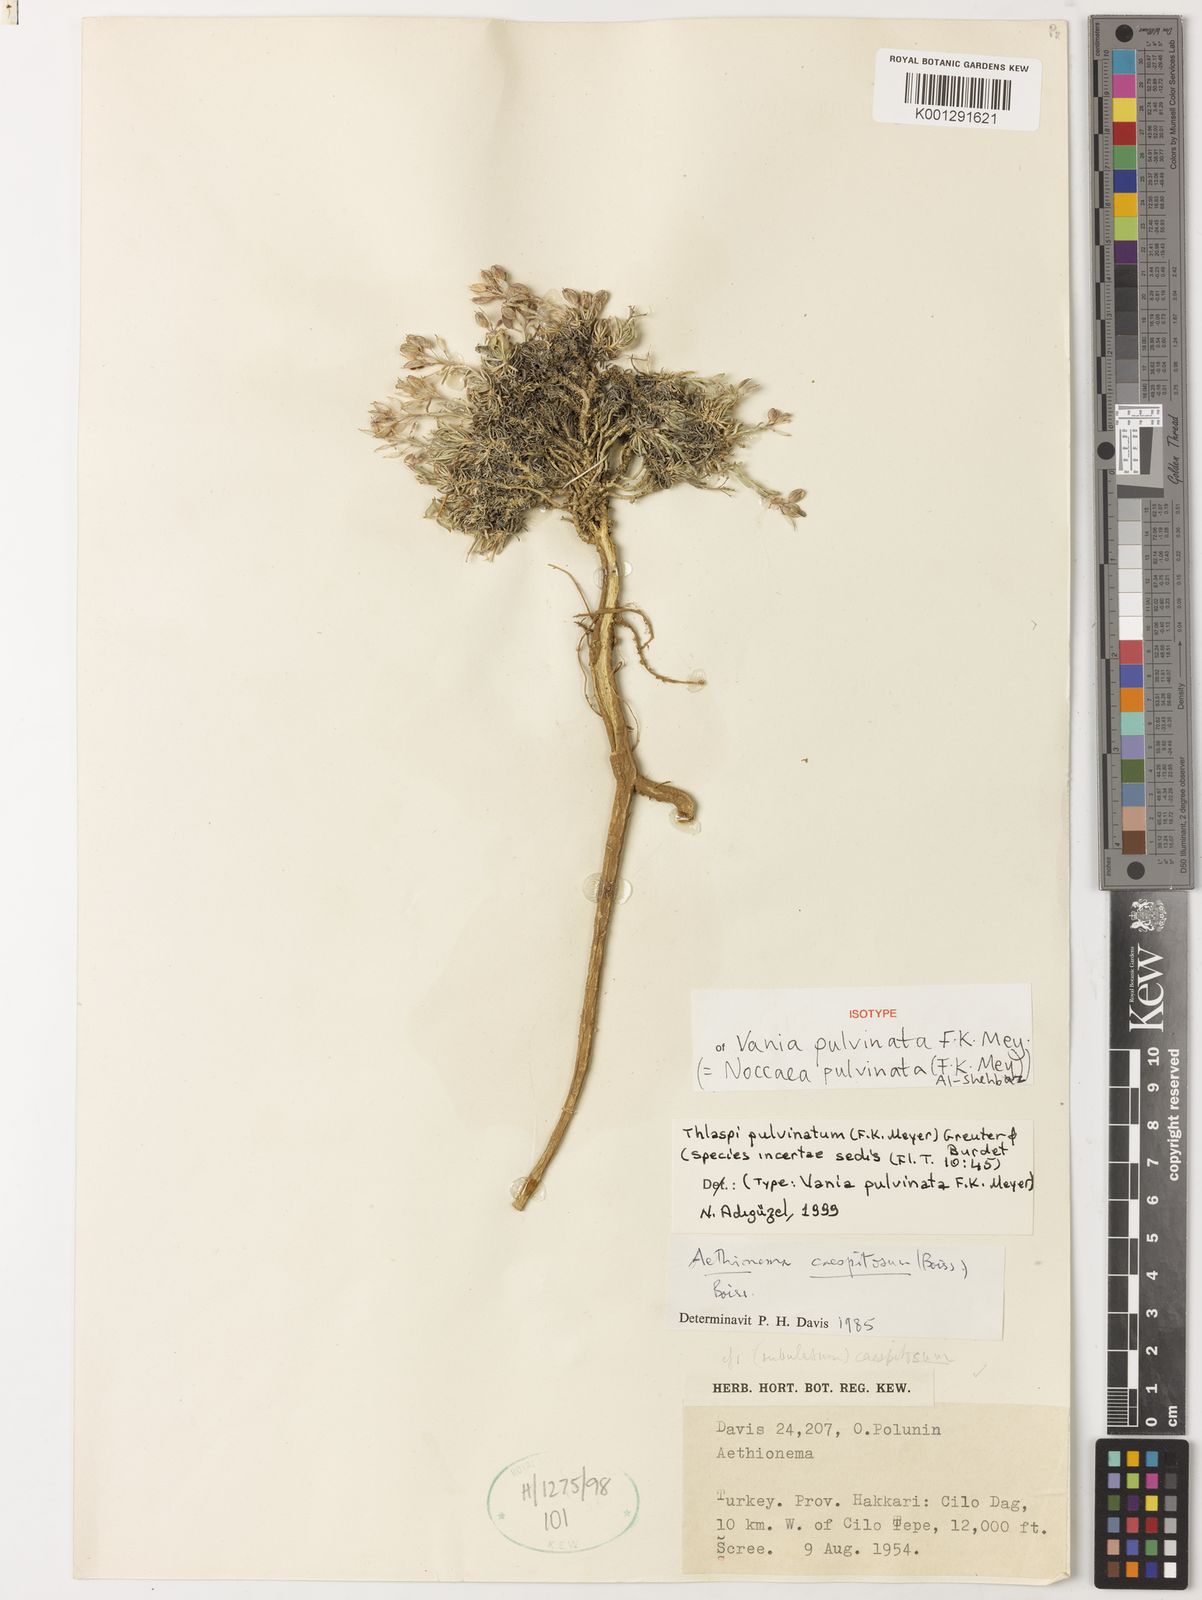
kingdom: Plantae
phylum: Tracheophyta
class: Magnoliopsida
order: Brassicales
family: Brassicaceae
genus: Noccaea
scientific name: Noccaea pulvinata
